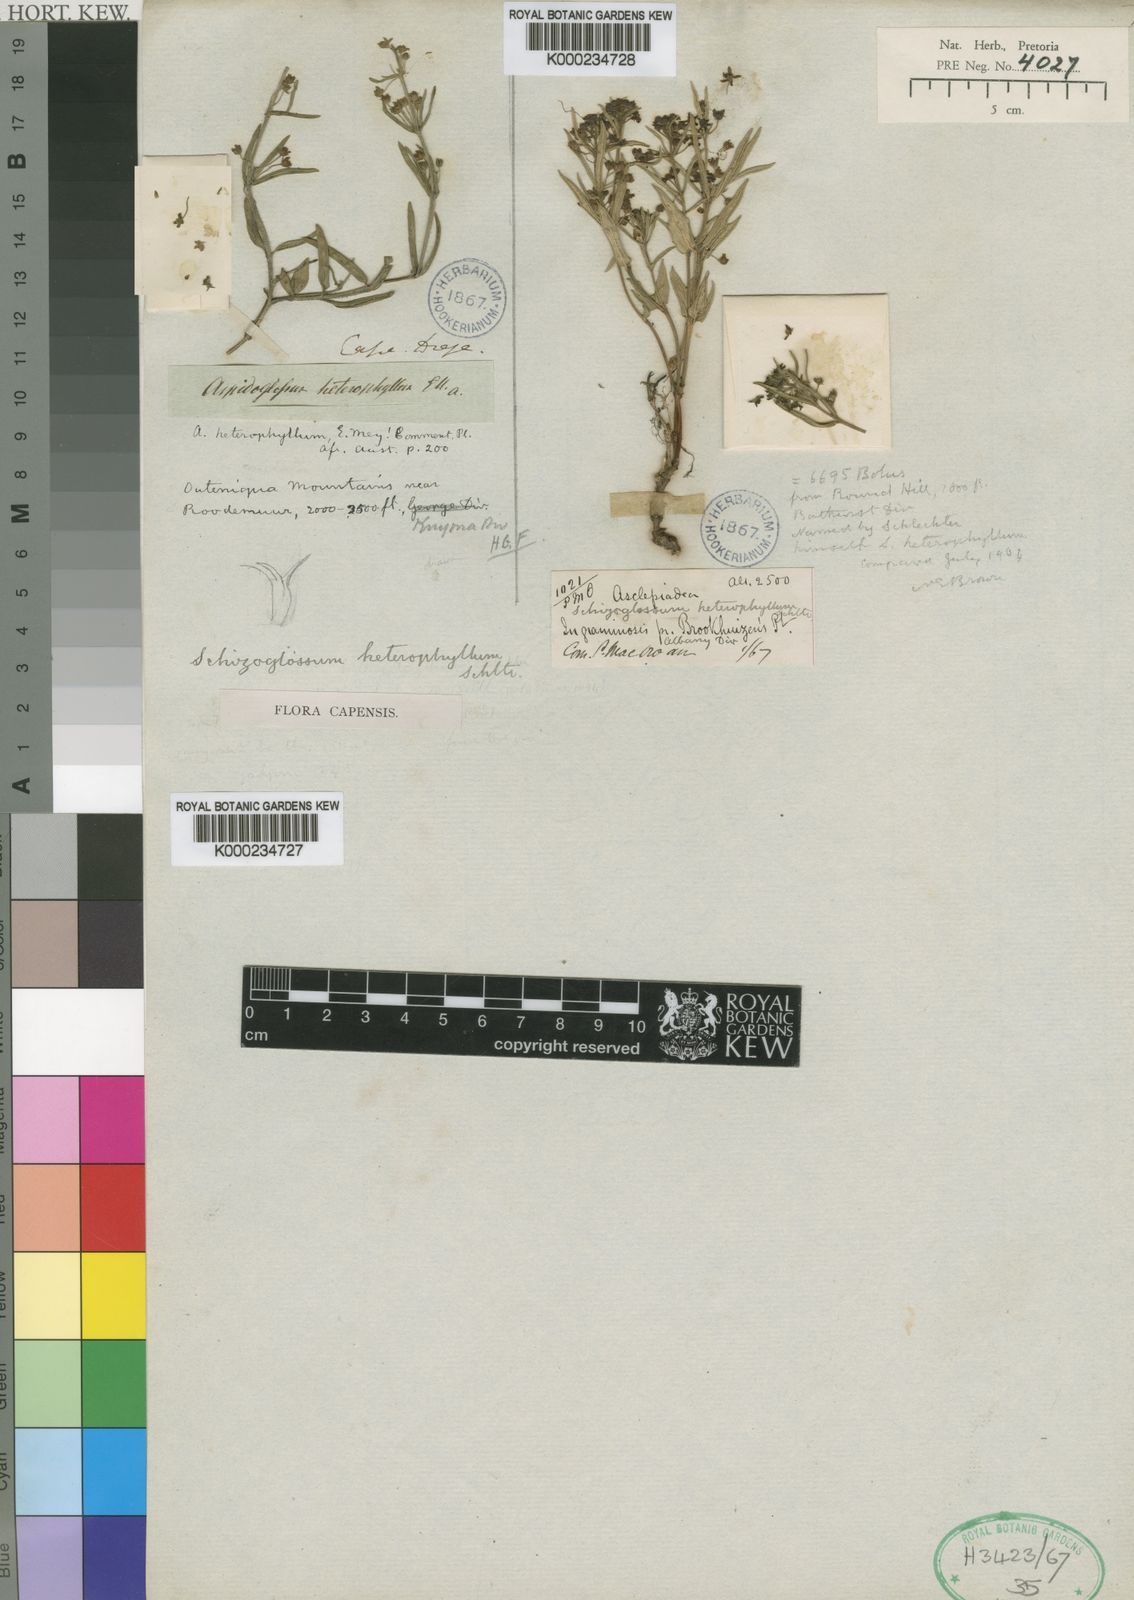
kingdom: Plantae
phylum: Tracheophyta
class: Magnoliopsida
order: Gentianales
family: Apocynaceae
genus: Aspidoglossum
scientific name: Aspidoglossum heterophyllum
